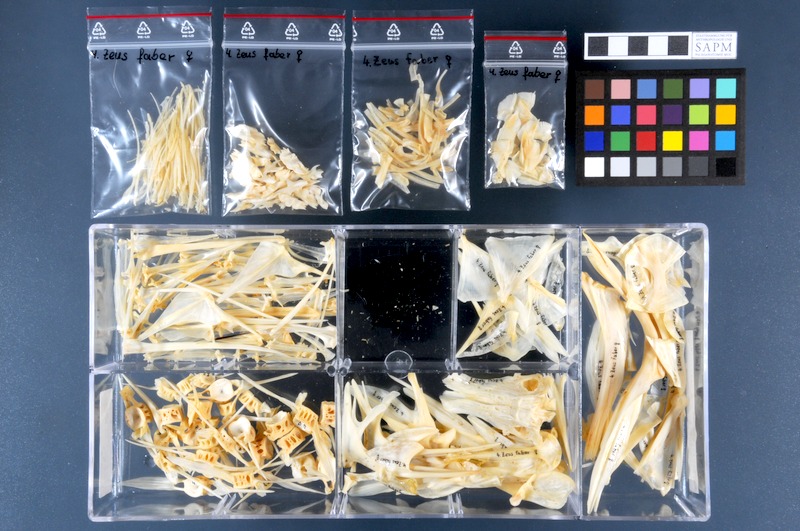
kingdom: Animalia
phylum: Chordata
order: Zeiformes
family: Zeidae
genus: Zeus
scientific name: Zeus faber
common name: John dory
